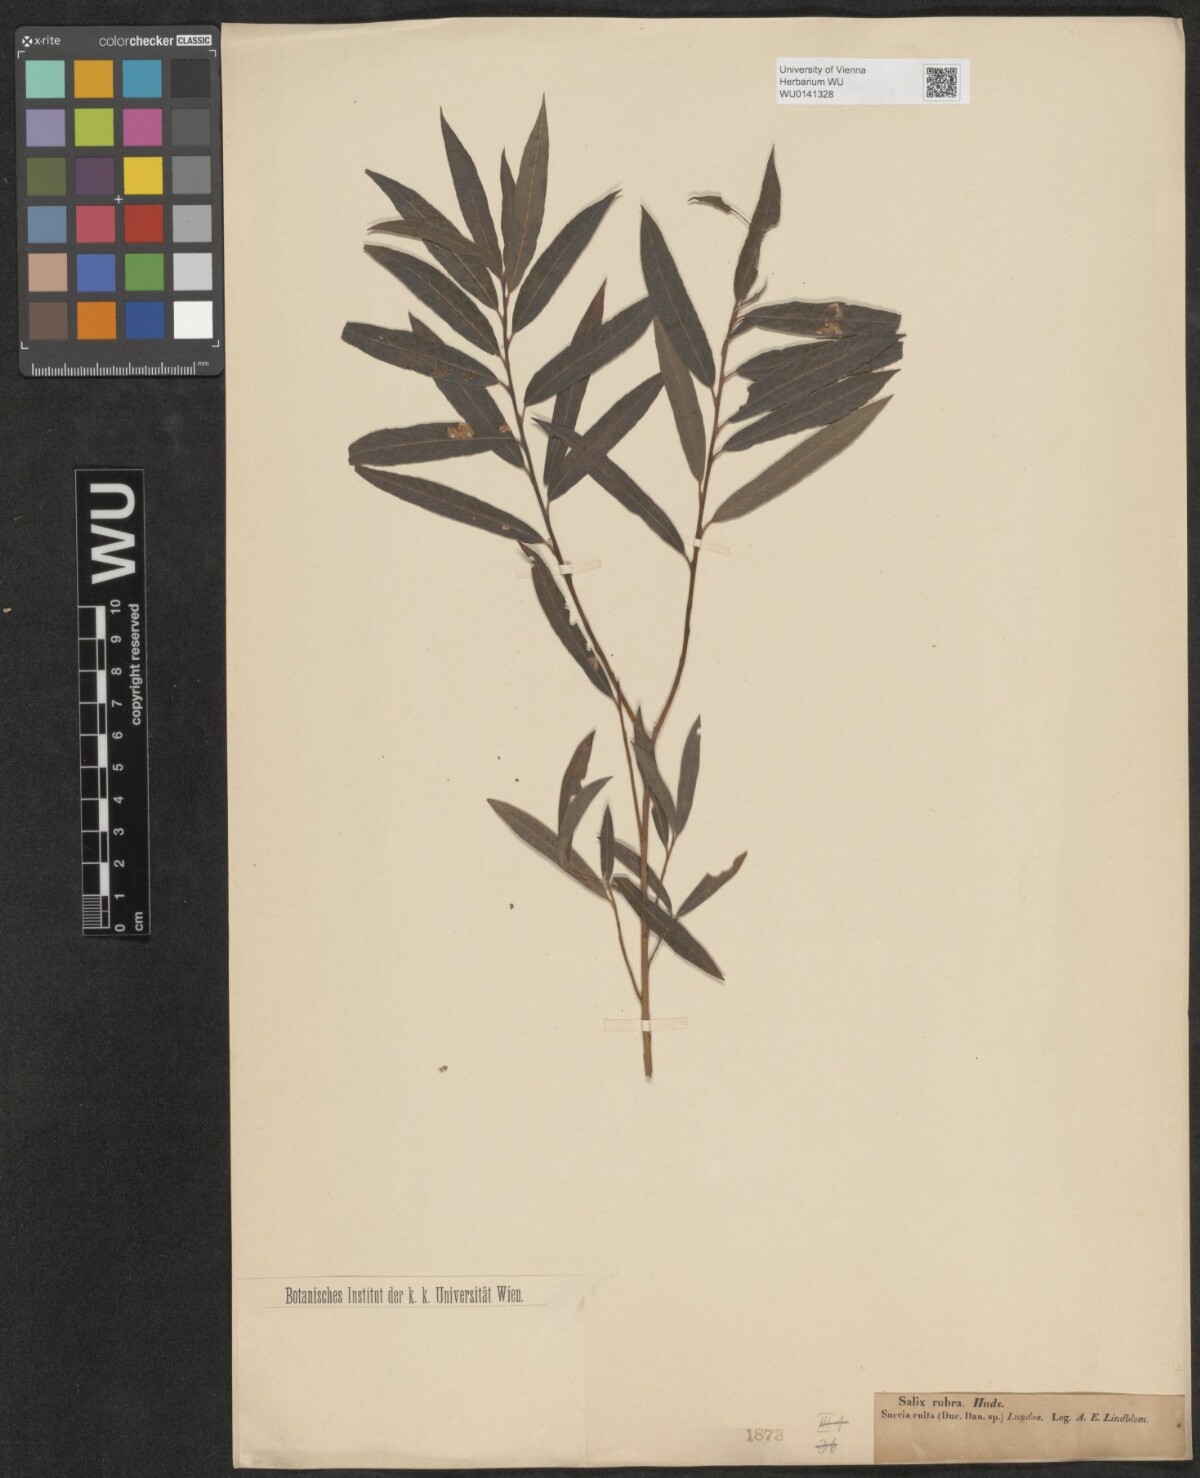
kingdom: Plantae
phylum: Tracheophyta
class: Magnoliopsida
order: Malpighiales
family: Salicaceae
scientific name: Salicaceae
